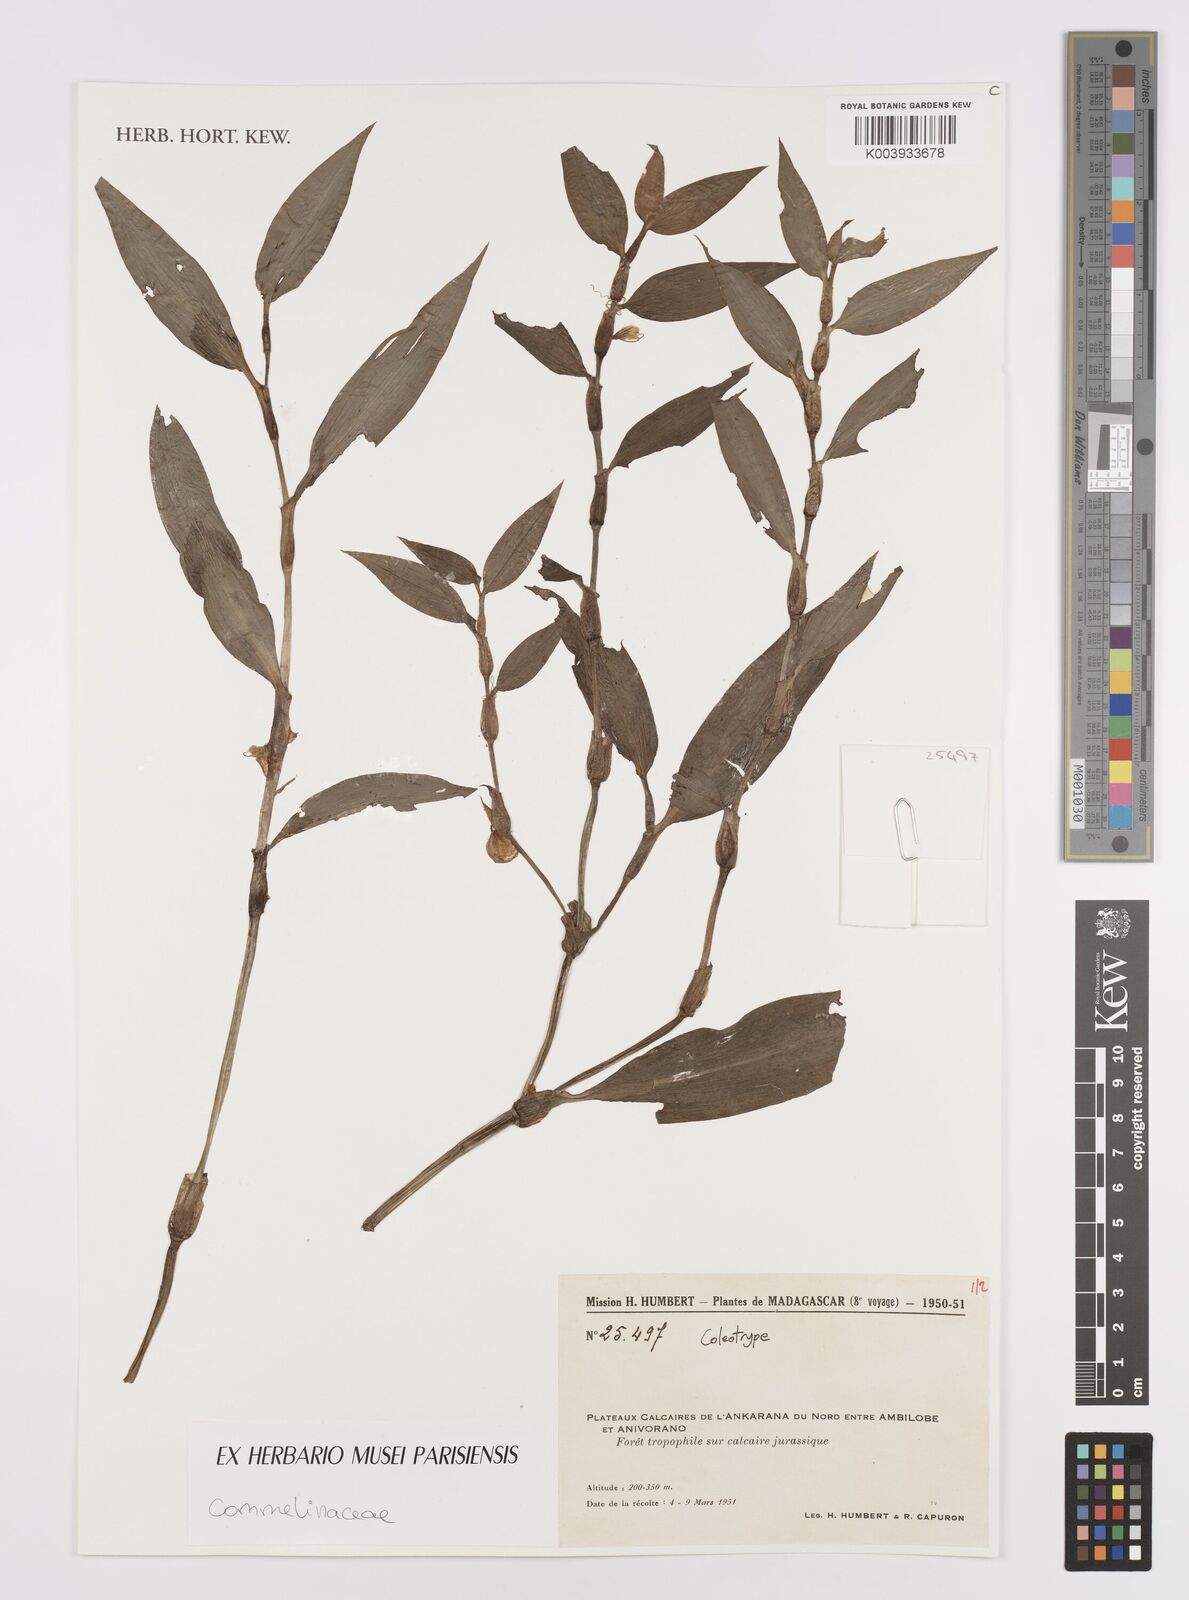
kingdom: Plantae
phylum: Tracheophyta
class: Liliopsida
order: Commelinales
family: Commelinaceae
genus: Coleotrype
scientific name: Coleotrype
